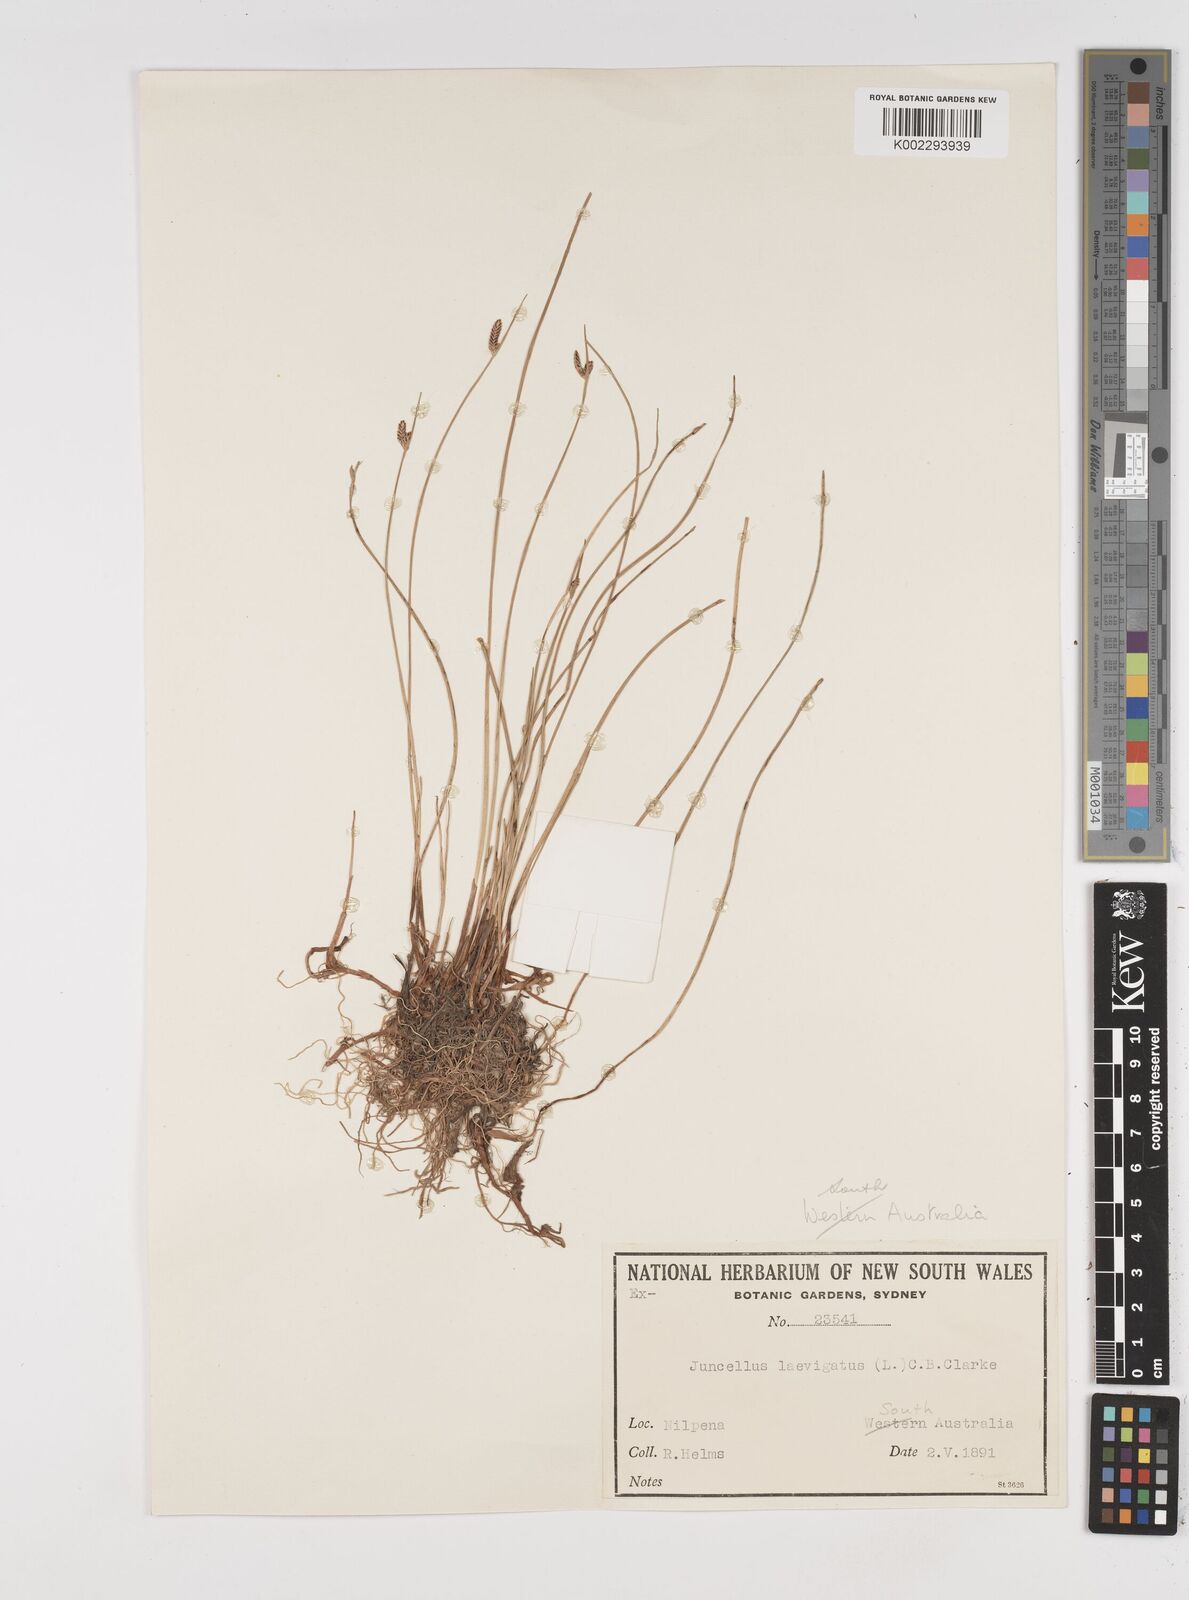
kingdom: Plantae
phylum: Tracheophyta
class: Liliopsida
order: Poales
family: Cyperaceae
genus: Cyperus
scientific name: Cyperus laevigatus
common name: Smooth flat sedge
